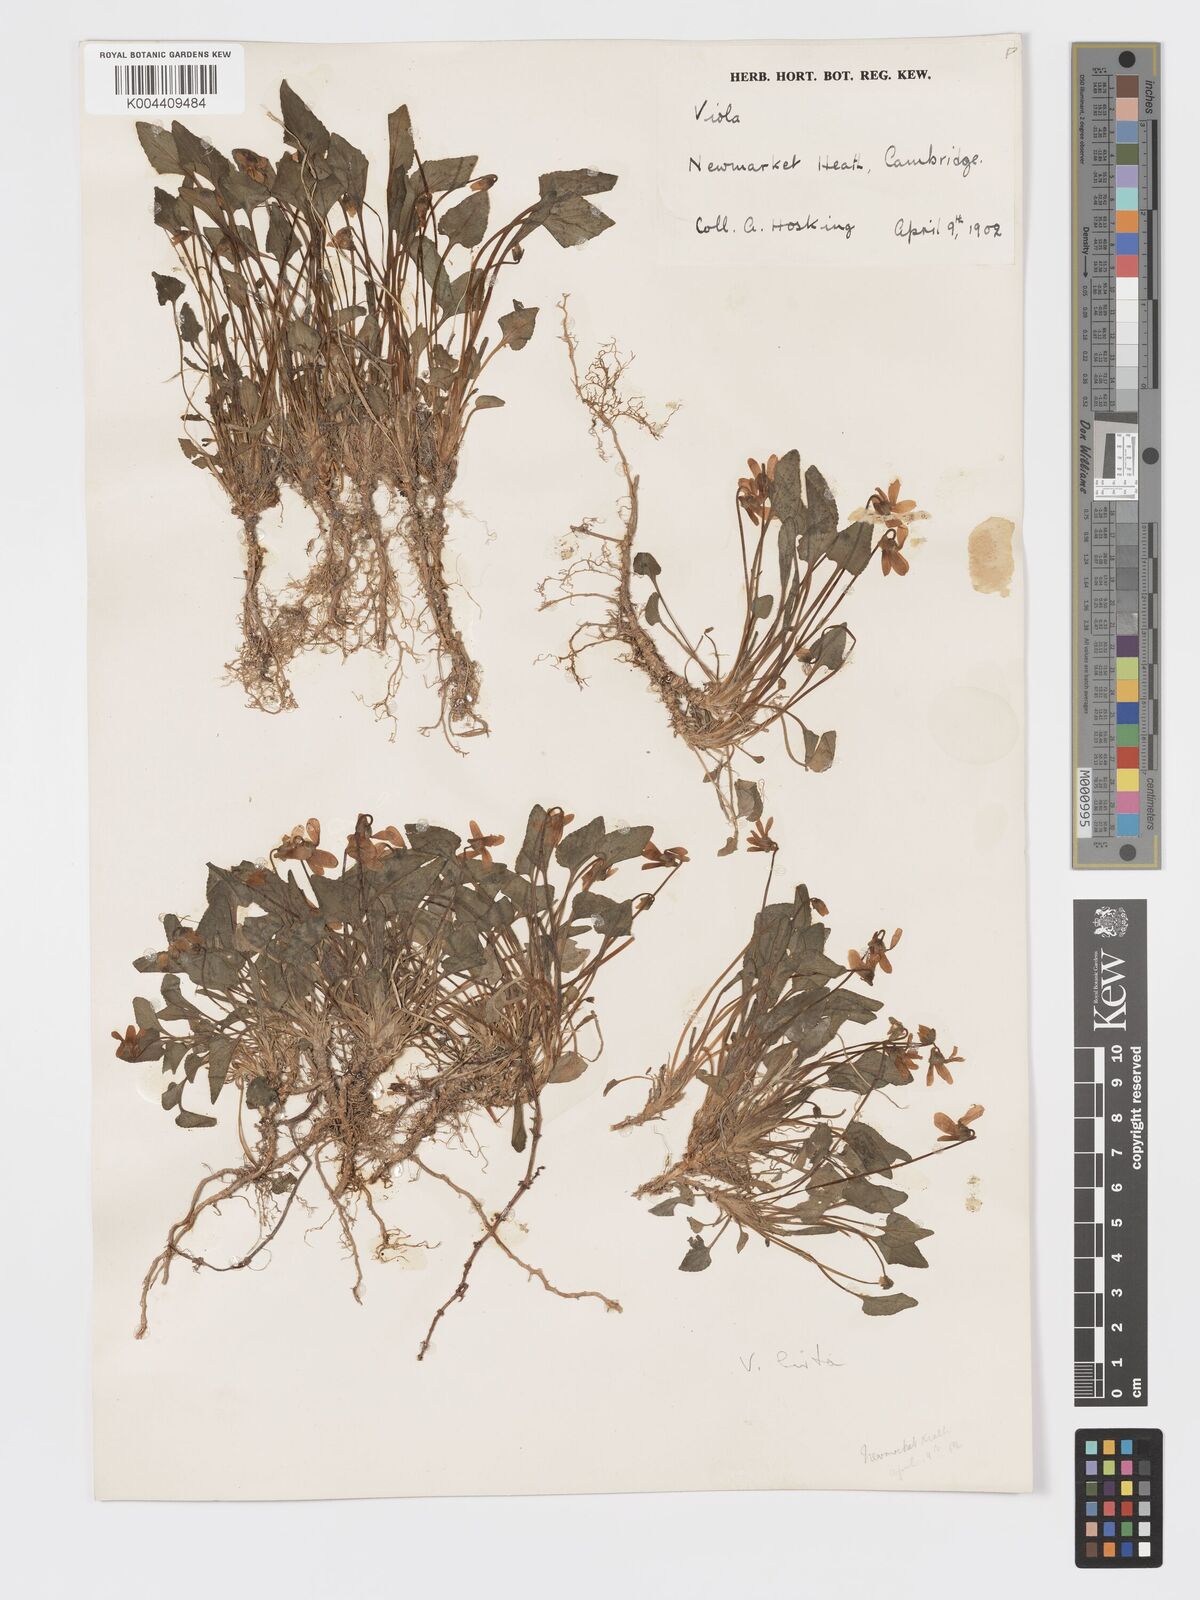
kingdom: Plantae
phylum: Tracheophyta
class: Magnoliopsida
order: Malpighiales
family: Violaceae
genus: Viola
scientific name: Viola
